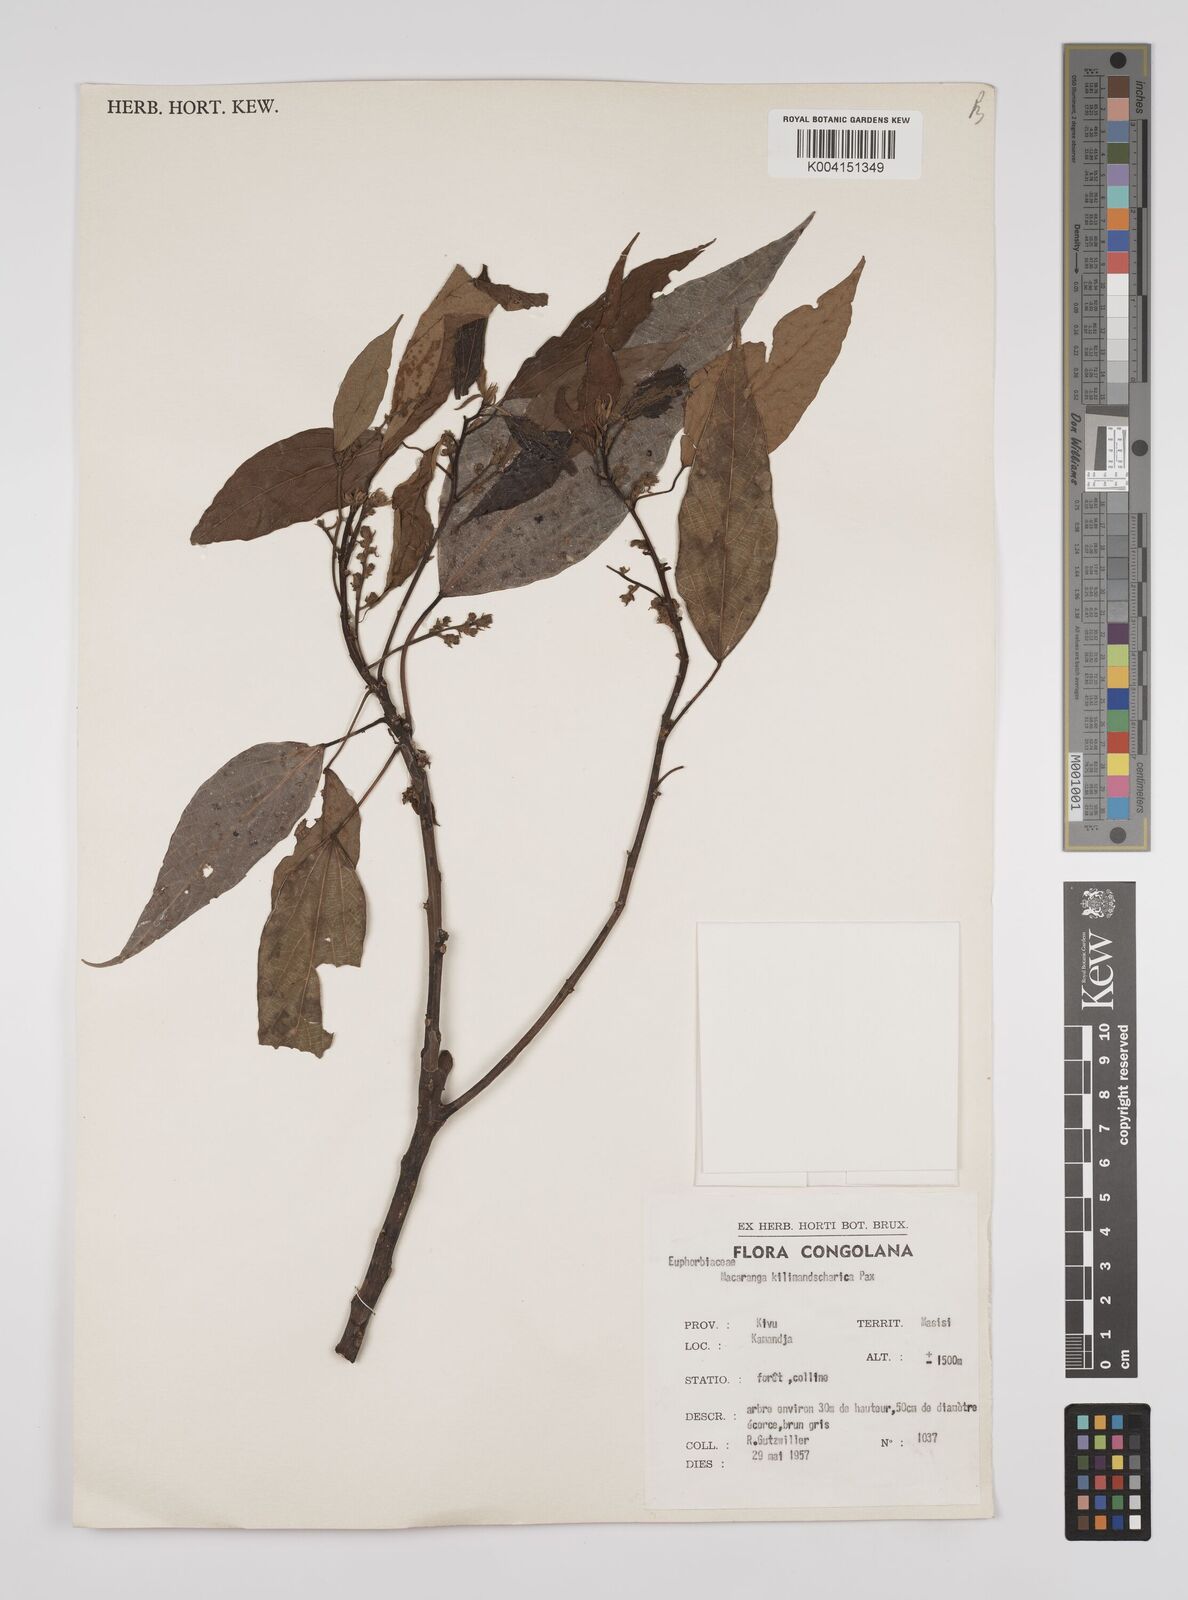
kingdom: Plantae
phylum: Tracheophyta
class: Magnoliopsida
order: Malpighiales
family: Euphorbiaceae
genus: Macaranga
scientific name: Macaranga kilimandscharica
